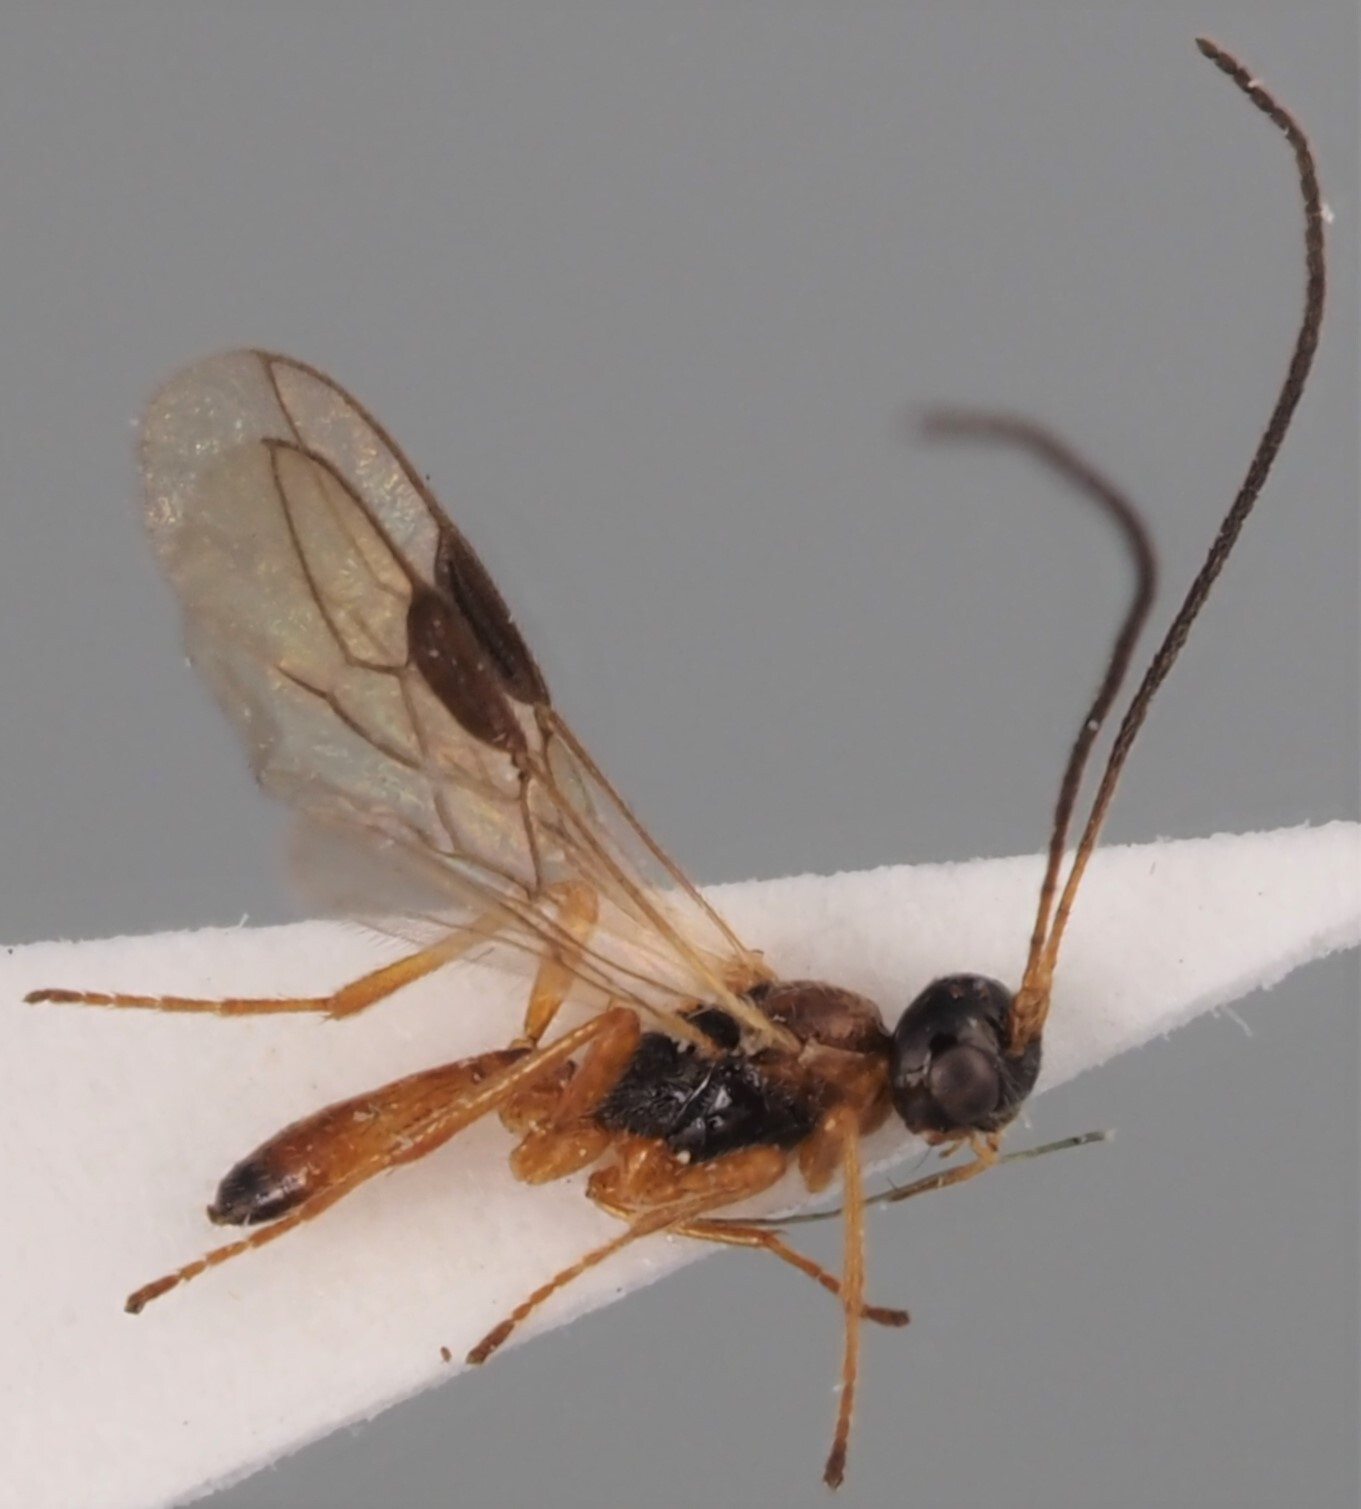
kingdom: Animalia
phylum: Arthropoda
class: Insecta
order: Hymenoptera
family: Braconidae
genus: Trachyusa
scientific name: Trachyusa aurora
